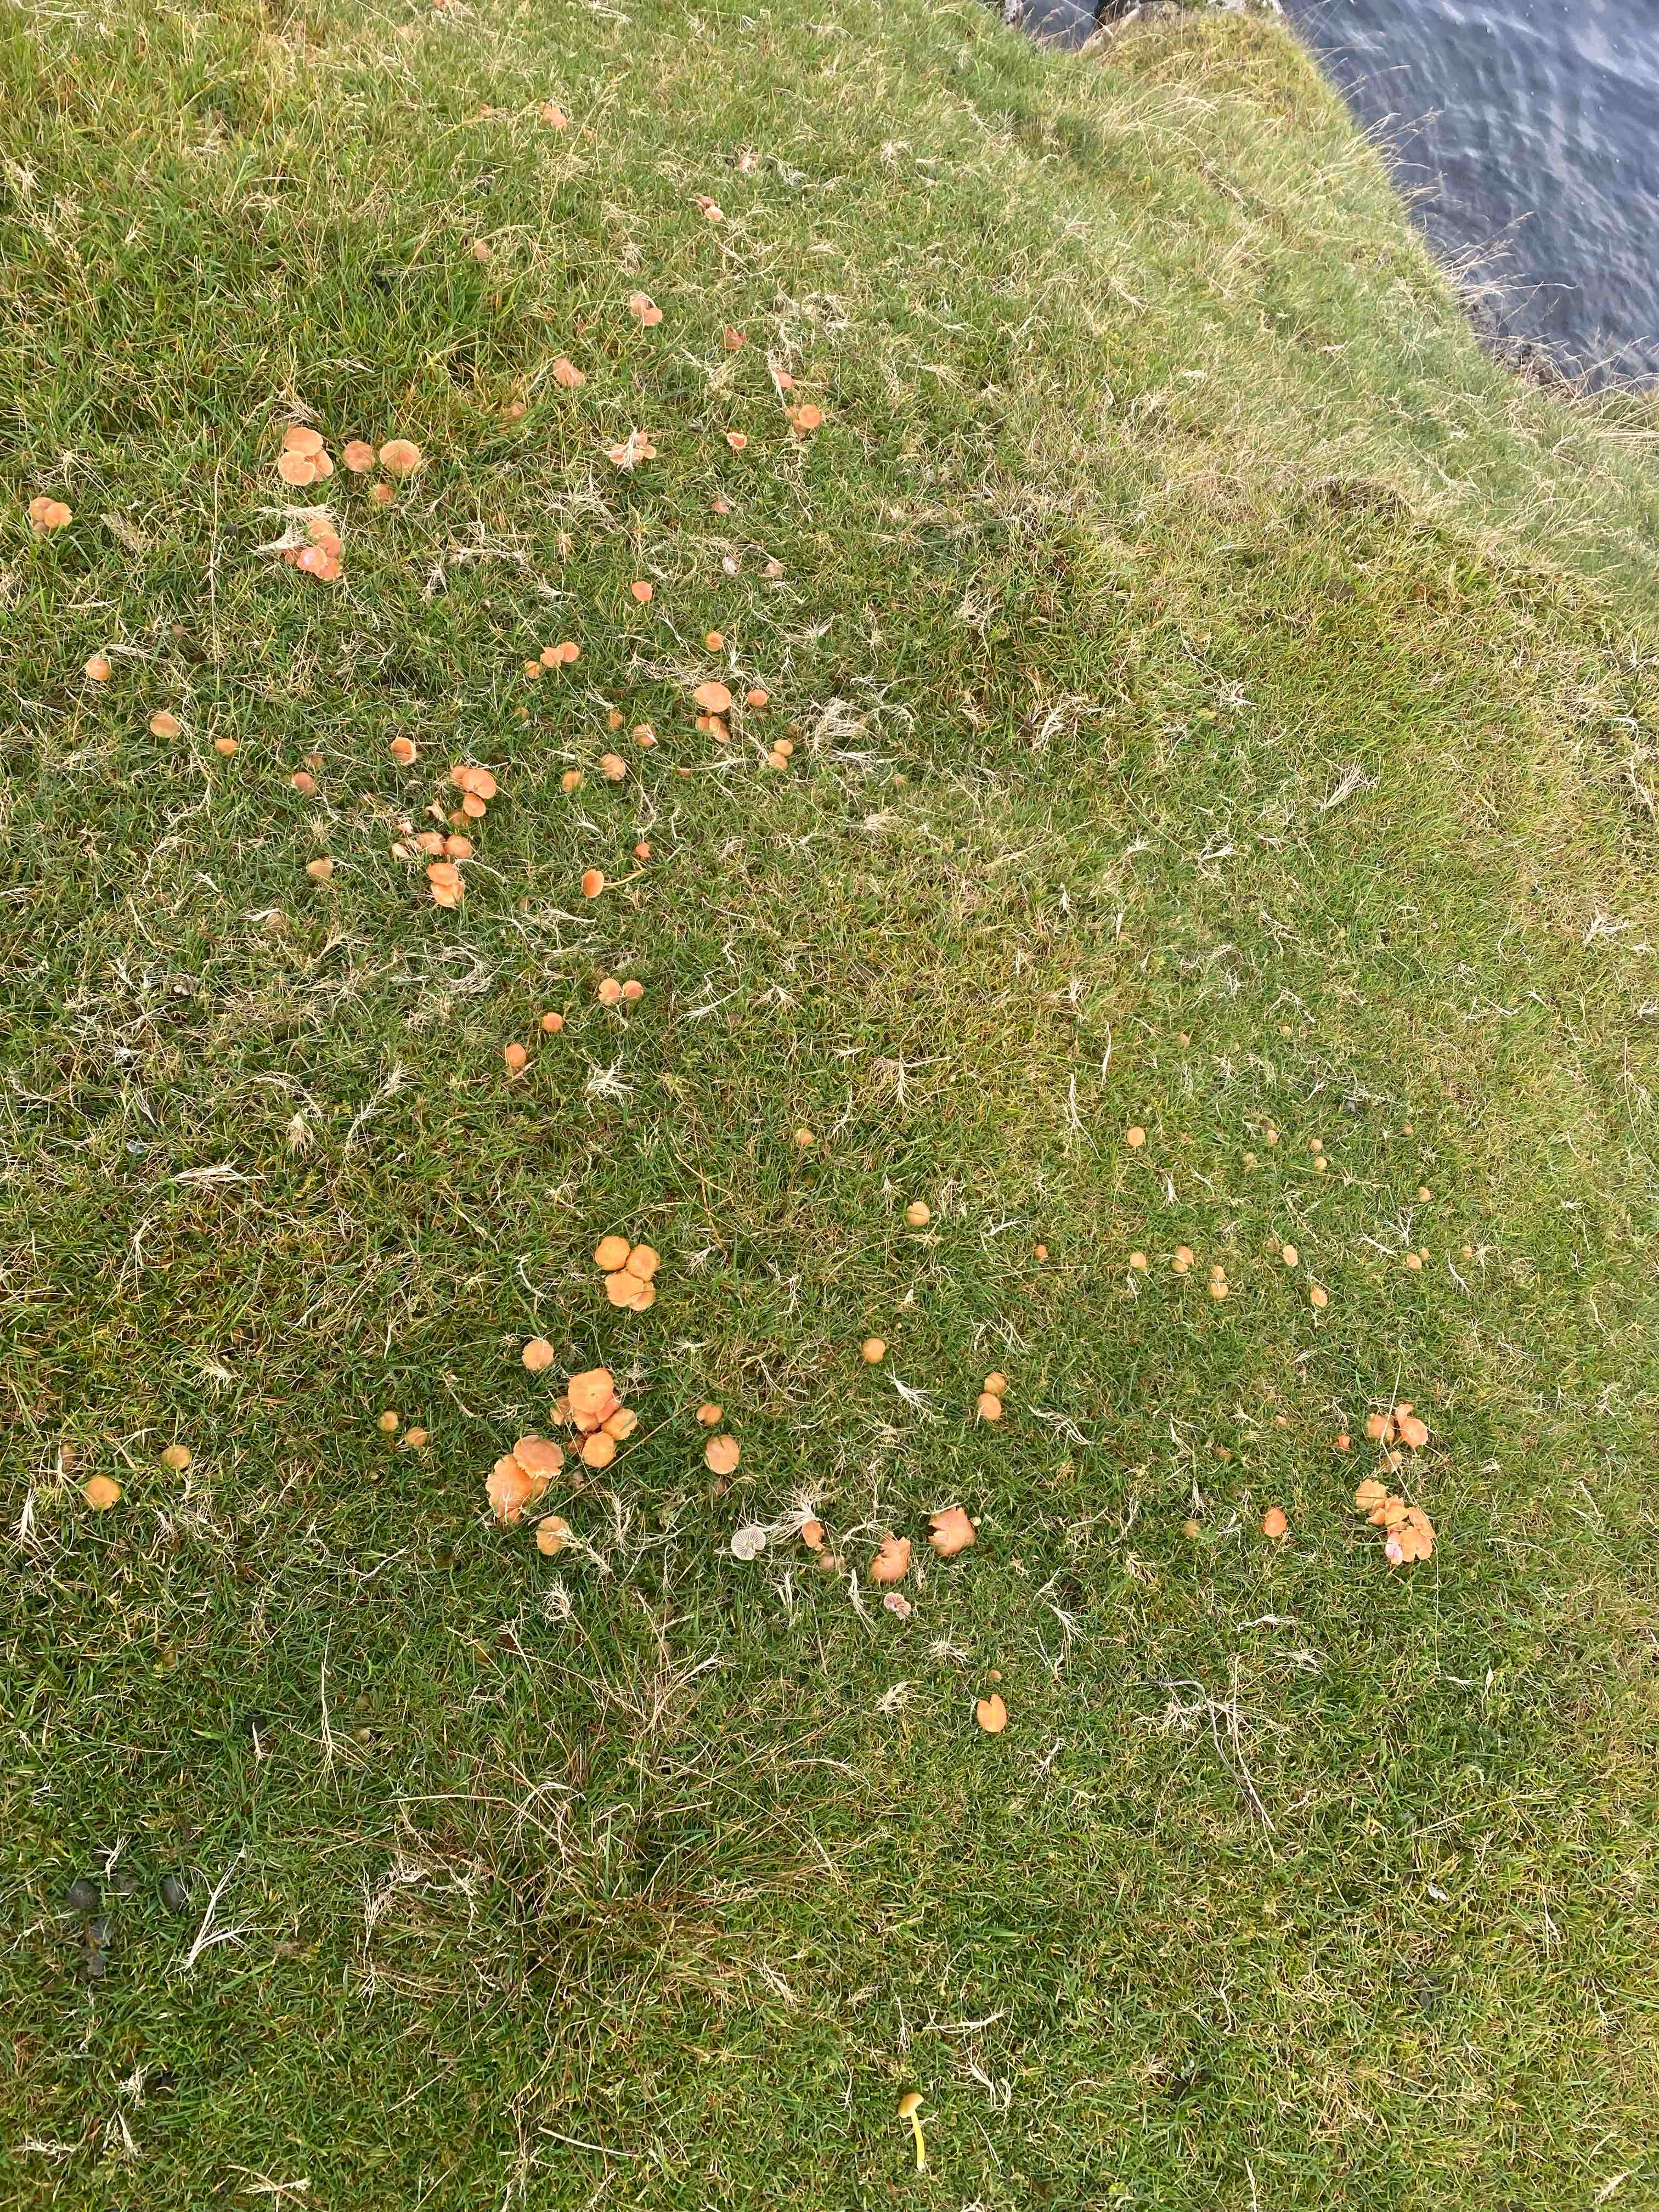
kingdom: Fungi
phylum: Basidiomycota
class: Agaricomycetes
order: Agaricales
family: Hygrophoraceae
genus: Gliophorus
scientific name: Gliophorus laetus
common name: brusk-vokshat
